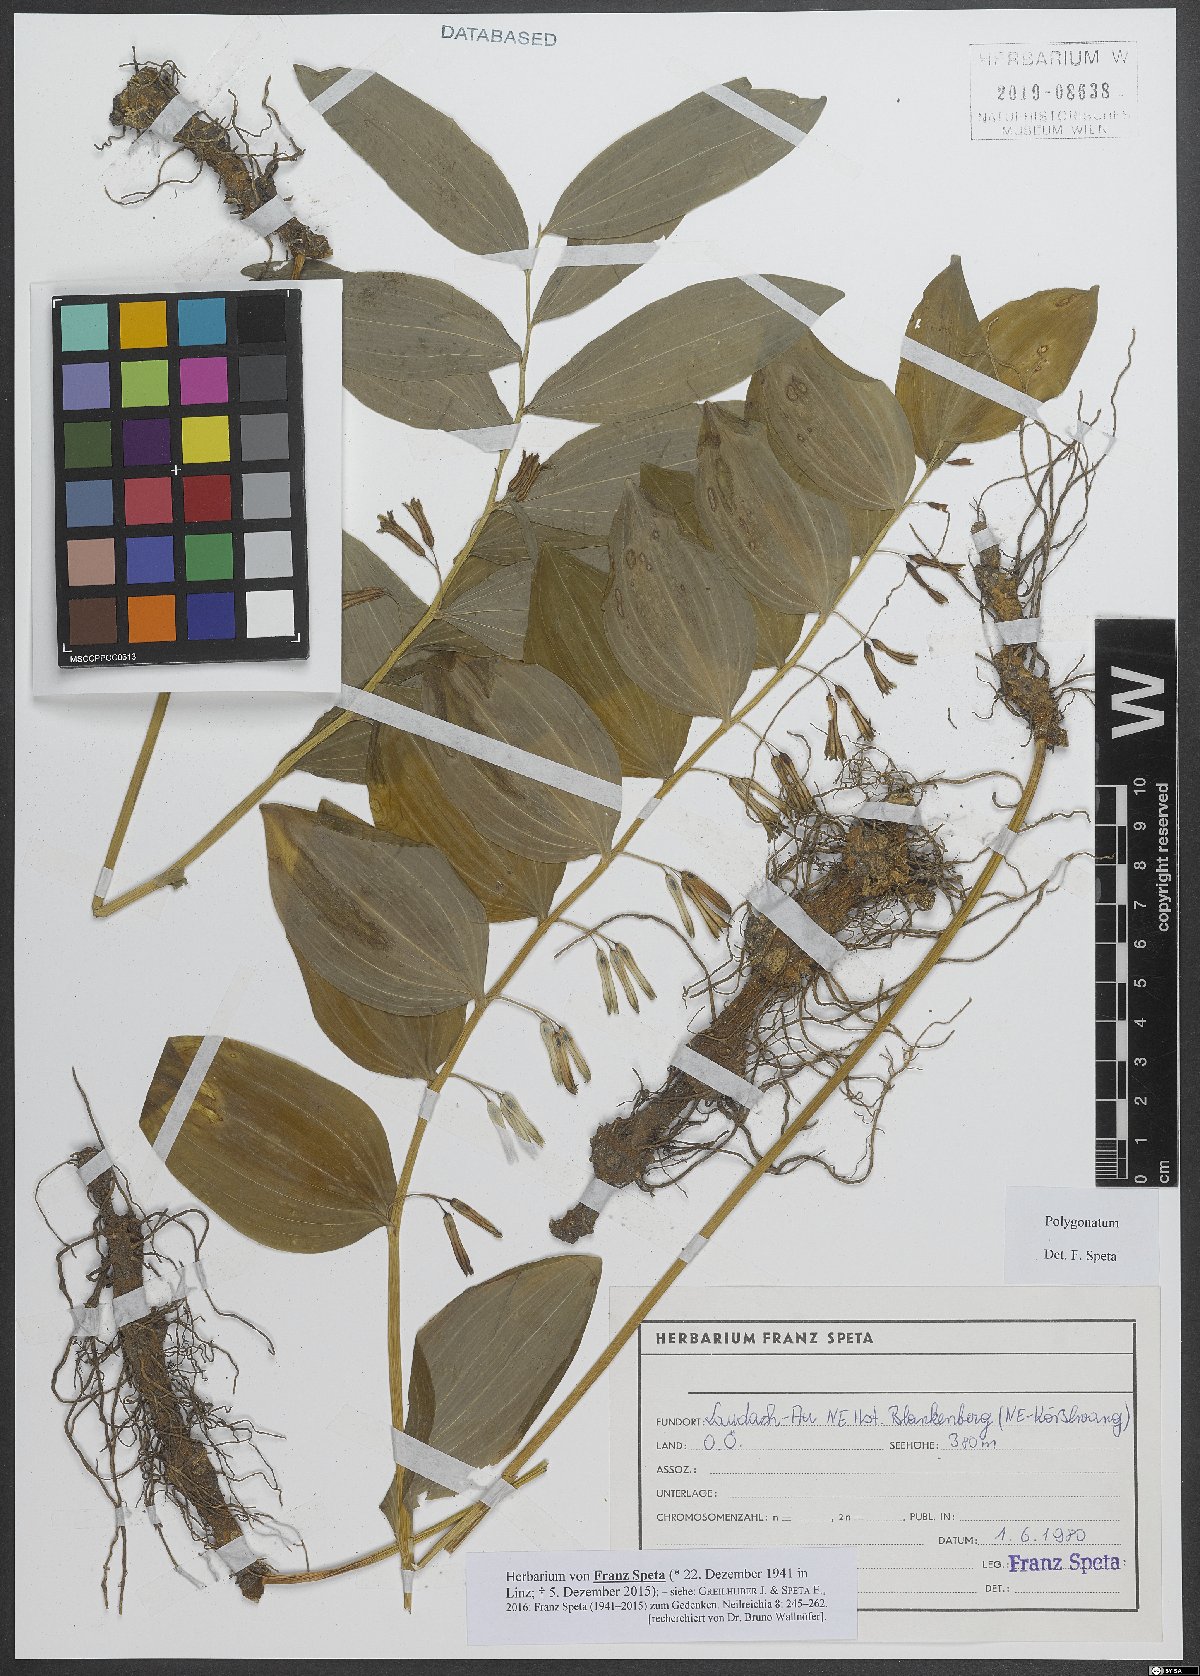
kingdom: Plantae
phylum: Tracheophyta
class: Liliopsida
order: Asparagales
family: Asparagaceae
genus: Polygonatum
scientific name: Polygonatum
